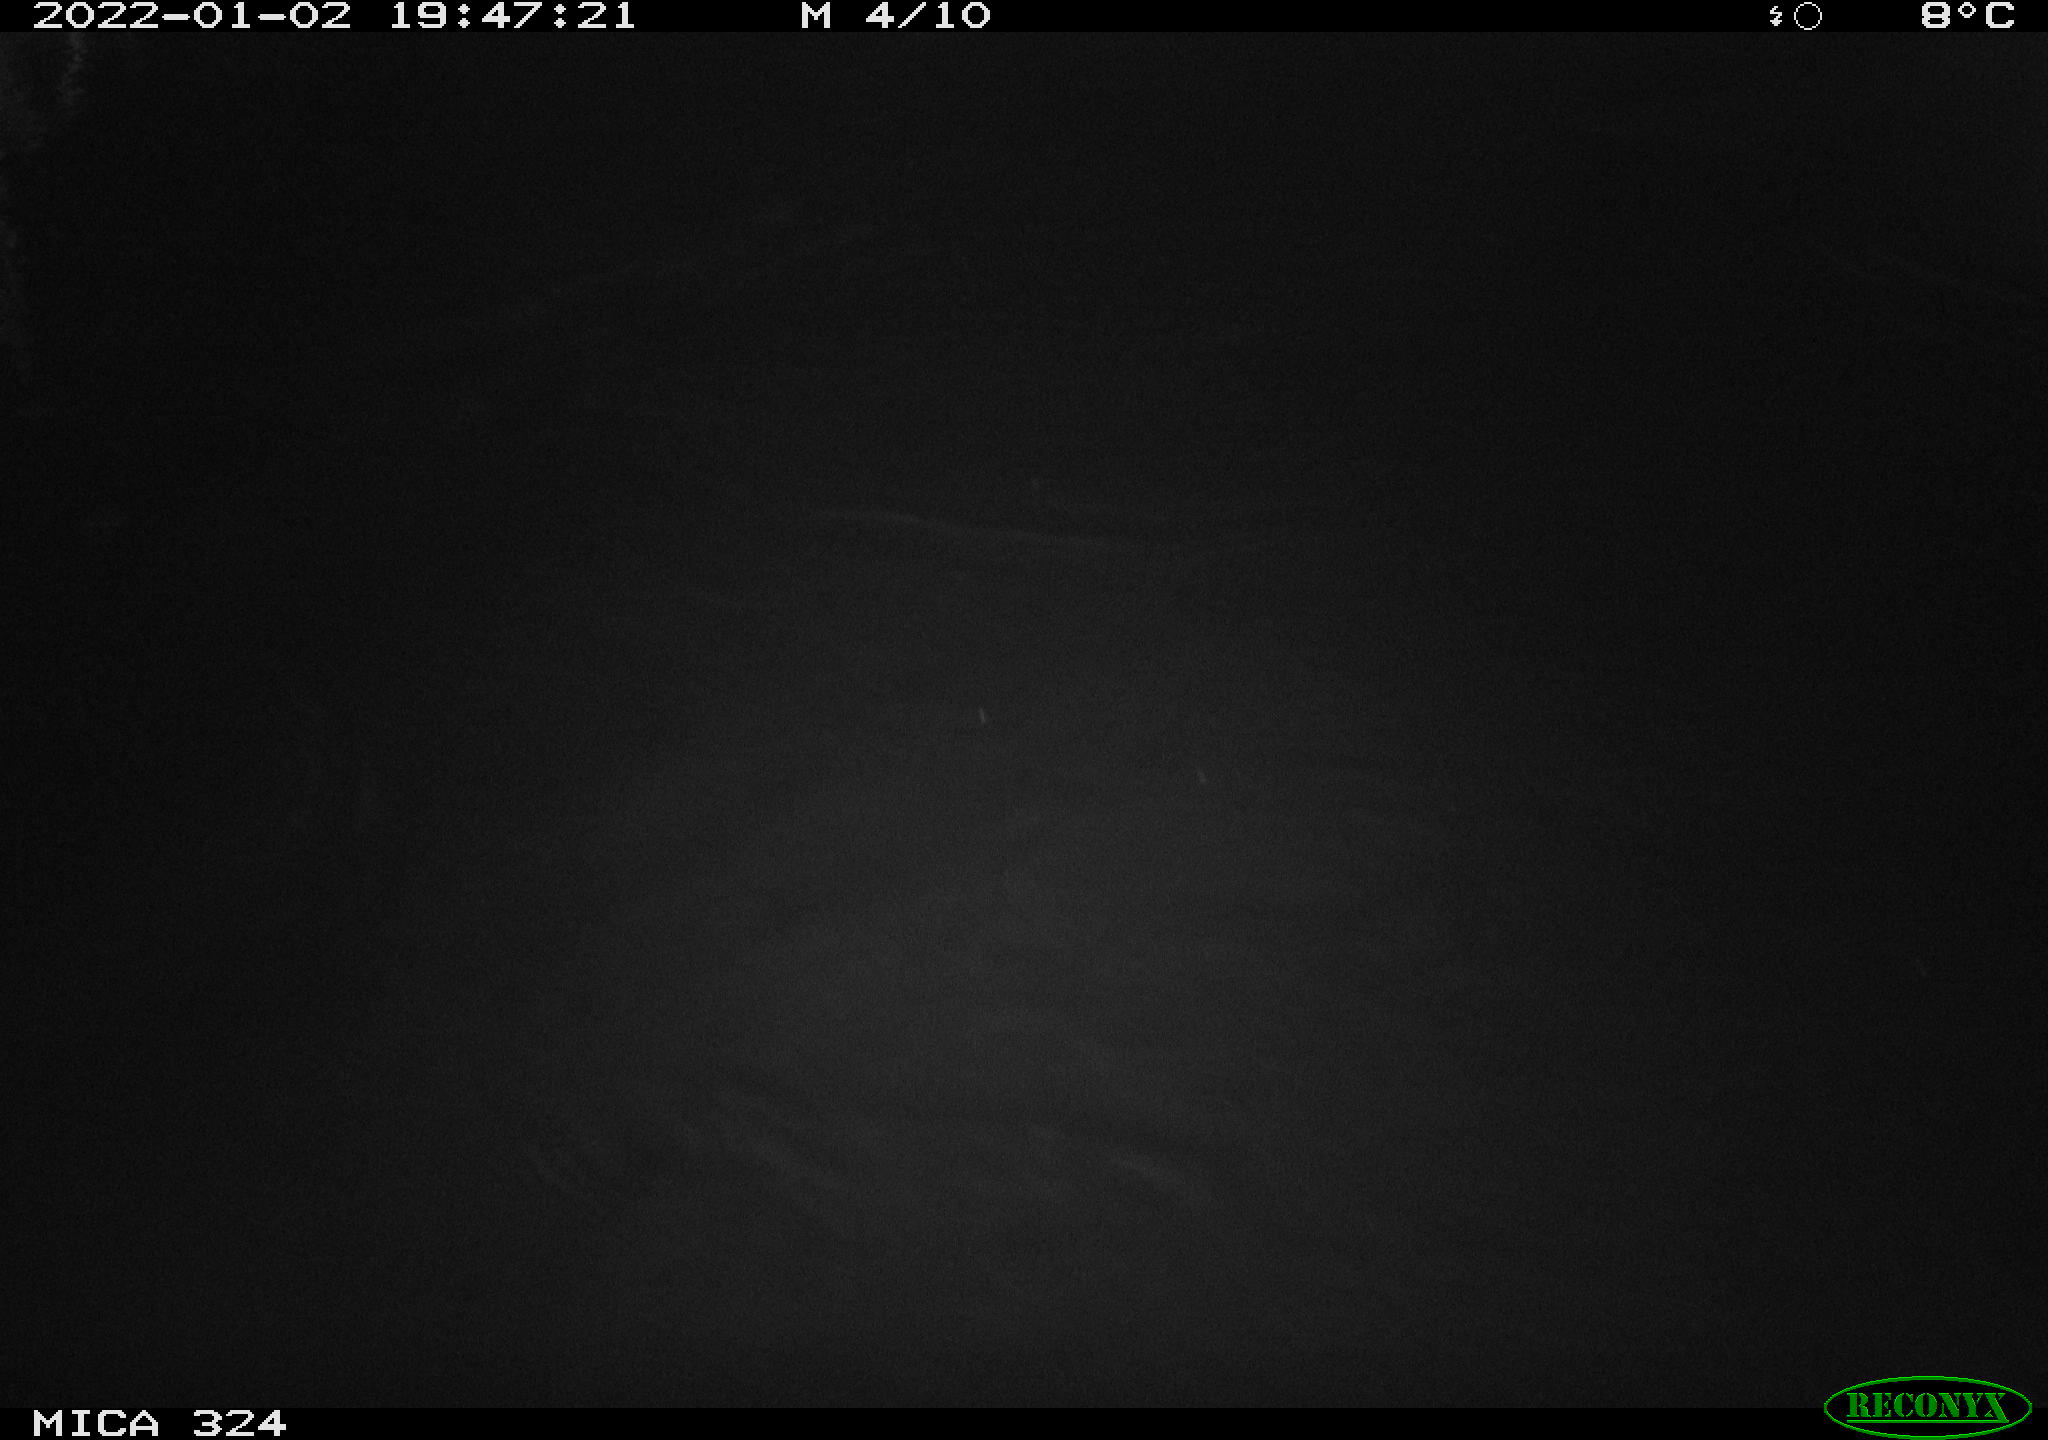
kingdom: Animalia
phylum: Chordata
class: Mammalia
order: Rodentia
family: Cricetidae
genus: Ondatra
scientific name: Ondatra zibethicus
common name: Muskrat
